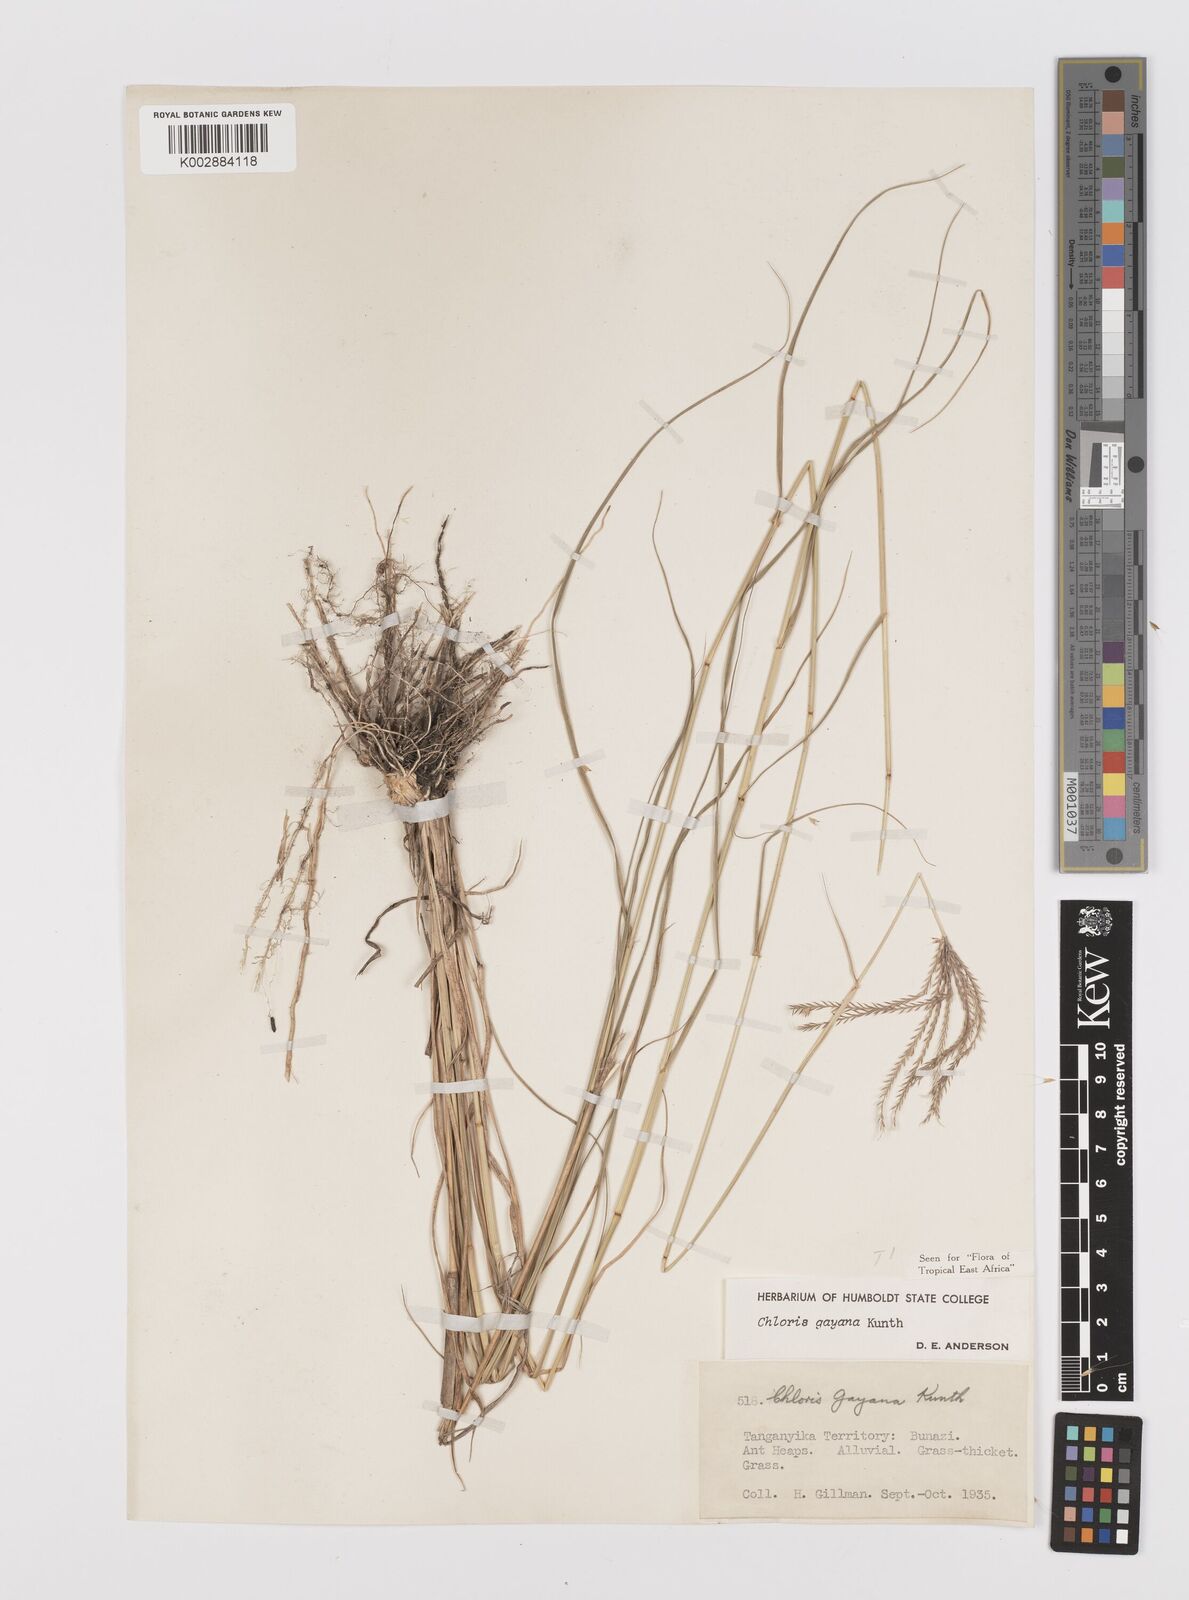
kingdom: Plantae
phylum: Tracheophyta
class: Liliopsida
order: Poales
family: Poaceae
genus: Chloris
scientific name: Chloris gayana
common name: Rhodes grass
